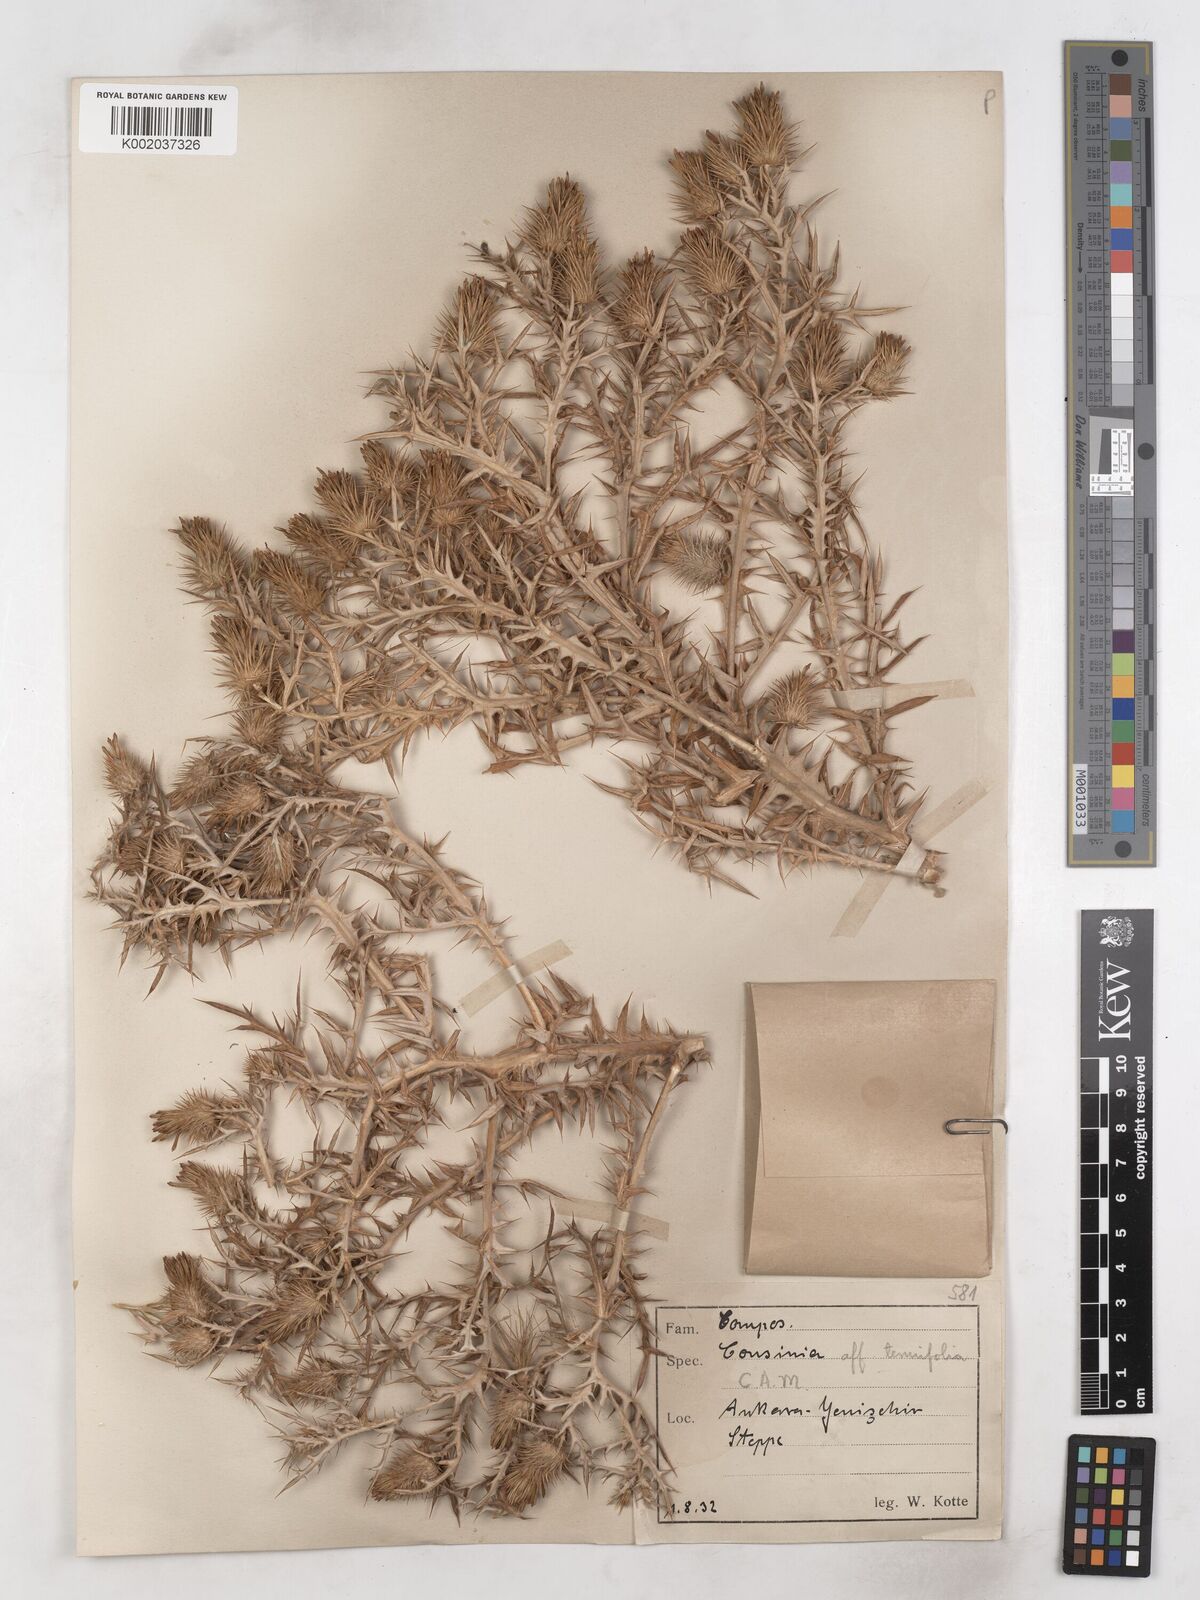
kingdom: Plantae
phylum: Tracheophyta
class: Magnoliopsida
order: Asterales
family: Asteraceae
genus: Cousinia
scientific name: Cousinia stapfiana
